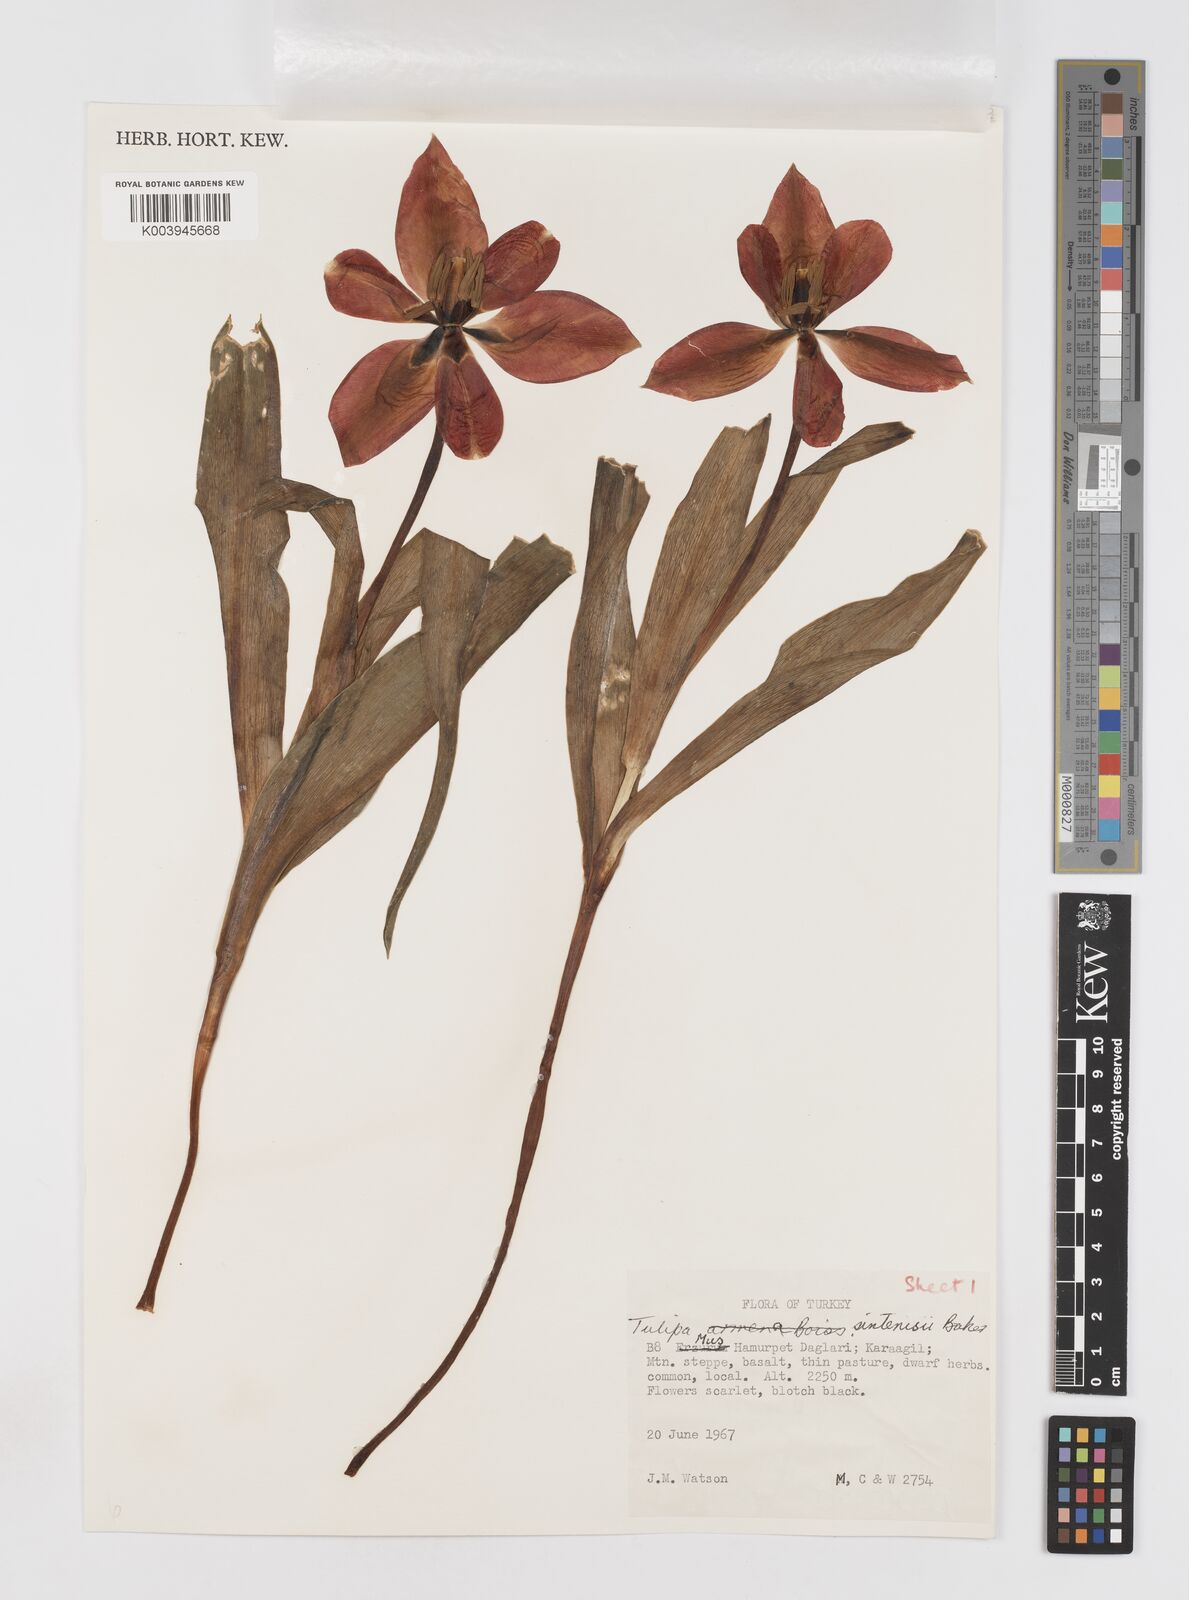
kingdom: Plantae
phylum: Tracheophyta
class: Liliopsida
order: Liliales
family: Liliaceae
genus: Tulipa
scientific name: Tulipa aleppensis
